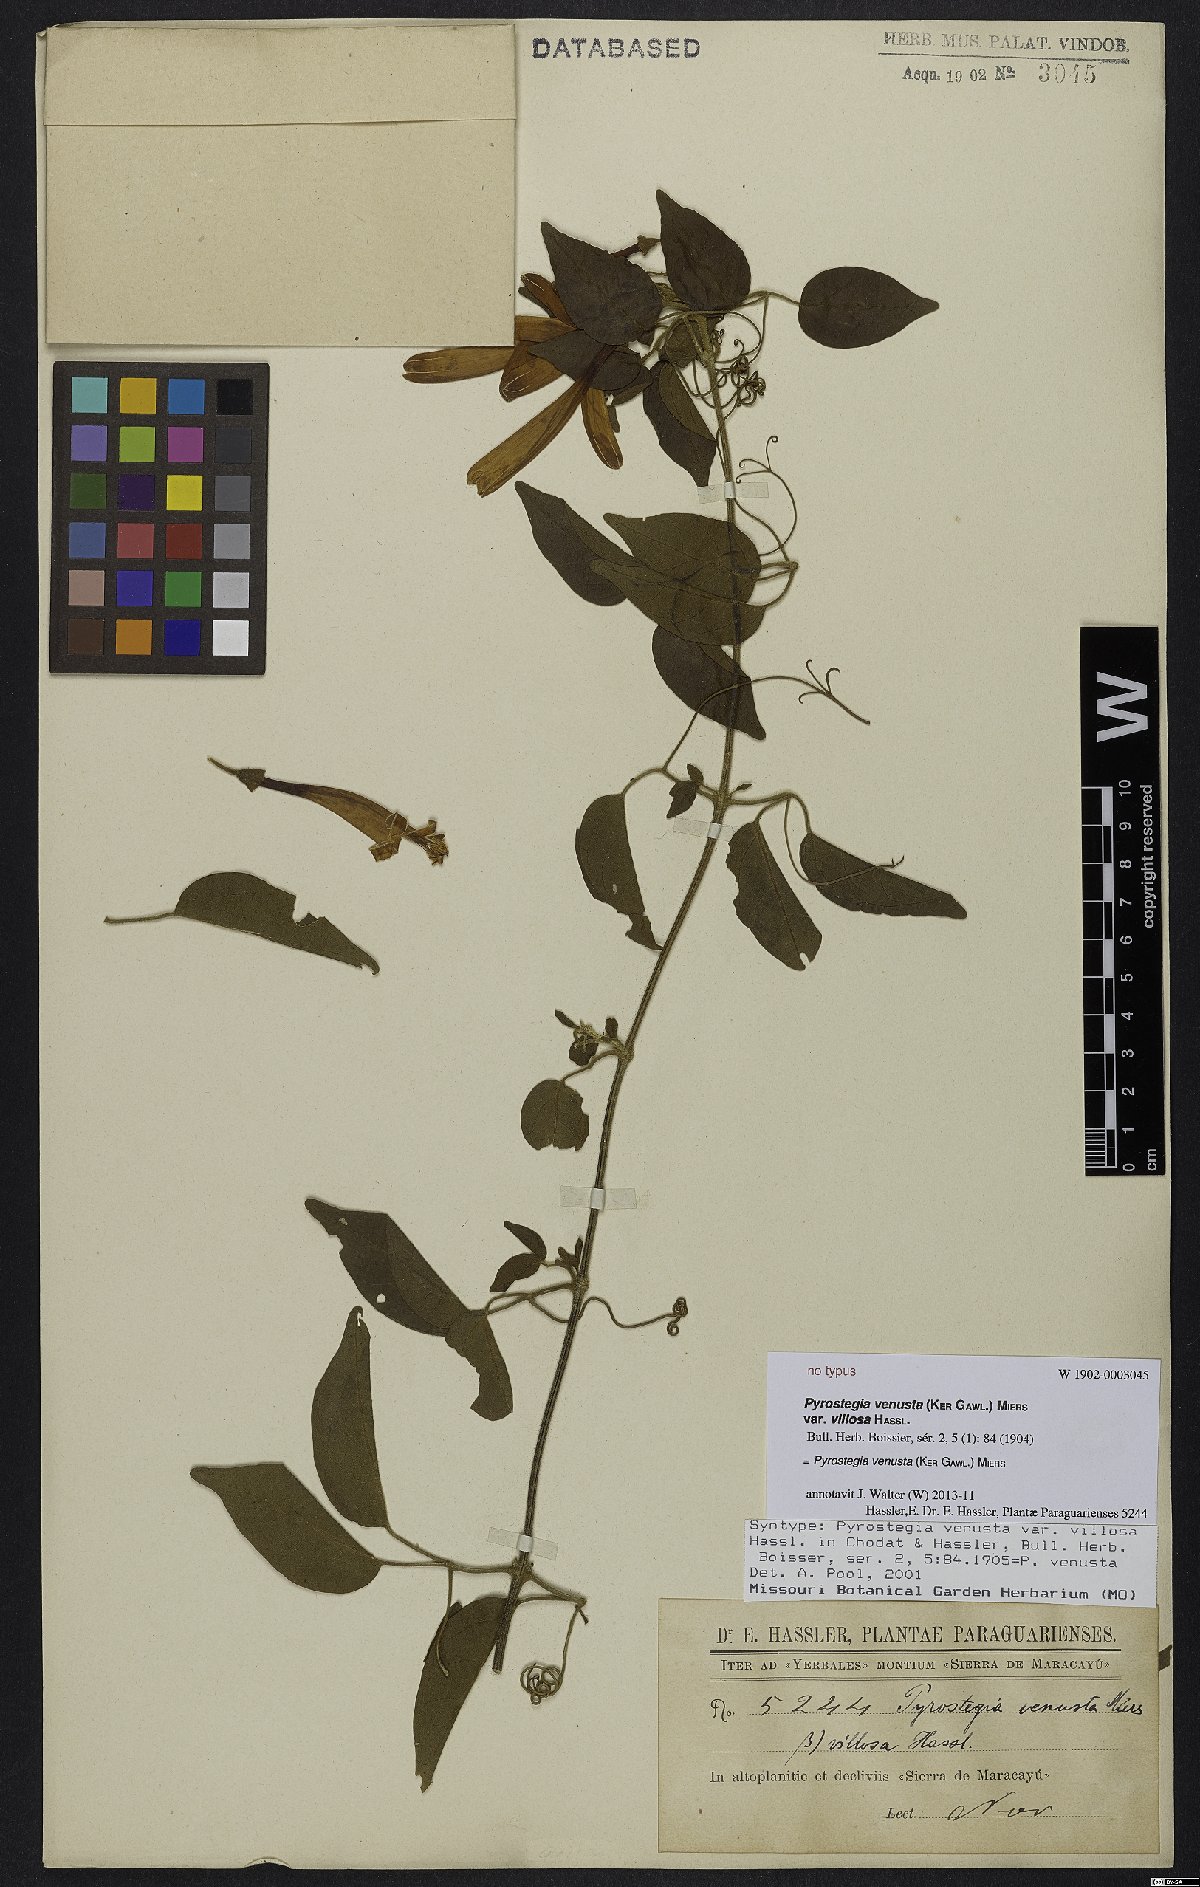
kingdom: Plantae
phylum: Tracheophyta
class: Magnoliopsida
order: Lamiales
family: Bignoniaceae
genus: Pyrostegia
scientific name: Pyrostegia venusta
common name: Flamevine
